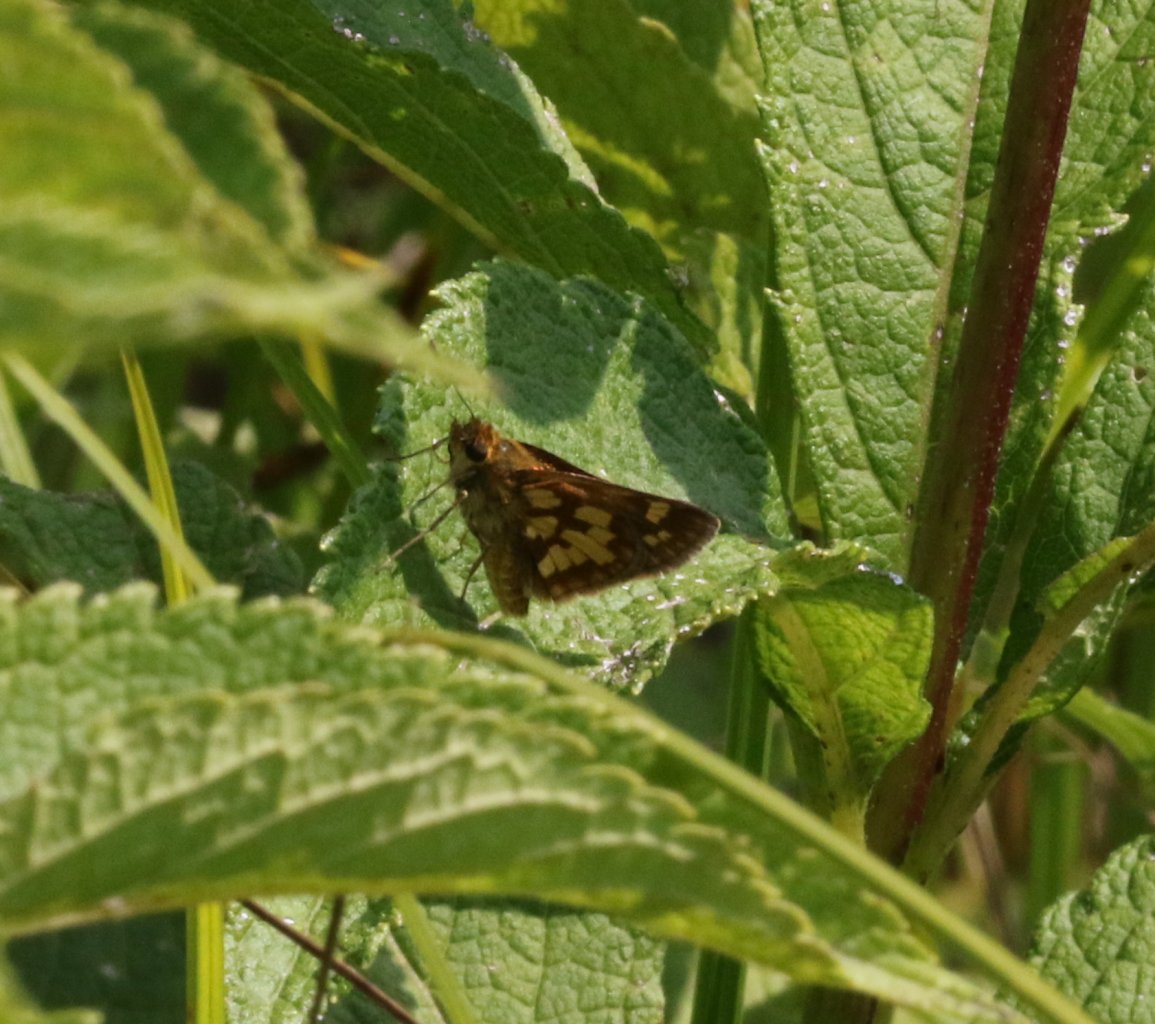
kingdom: Animalia
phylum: Arthropoda
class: Insecta
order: Lepidoptera
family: Hesperiidae
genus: Polites
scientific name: Polites coras
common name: Peck's Skipper
